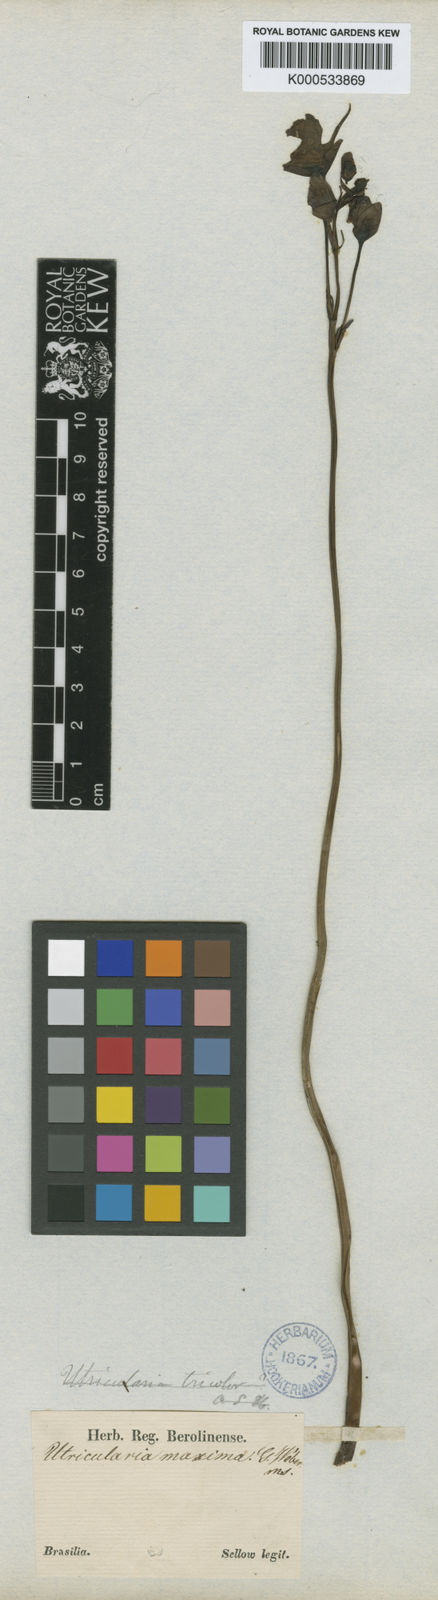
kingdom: Plantae
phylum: Tracheophyta
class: Magnoliopsida
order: Lamiales
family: Lentibulariaceae
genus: Utricularia
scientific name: Utricularia tricolor
